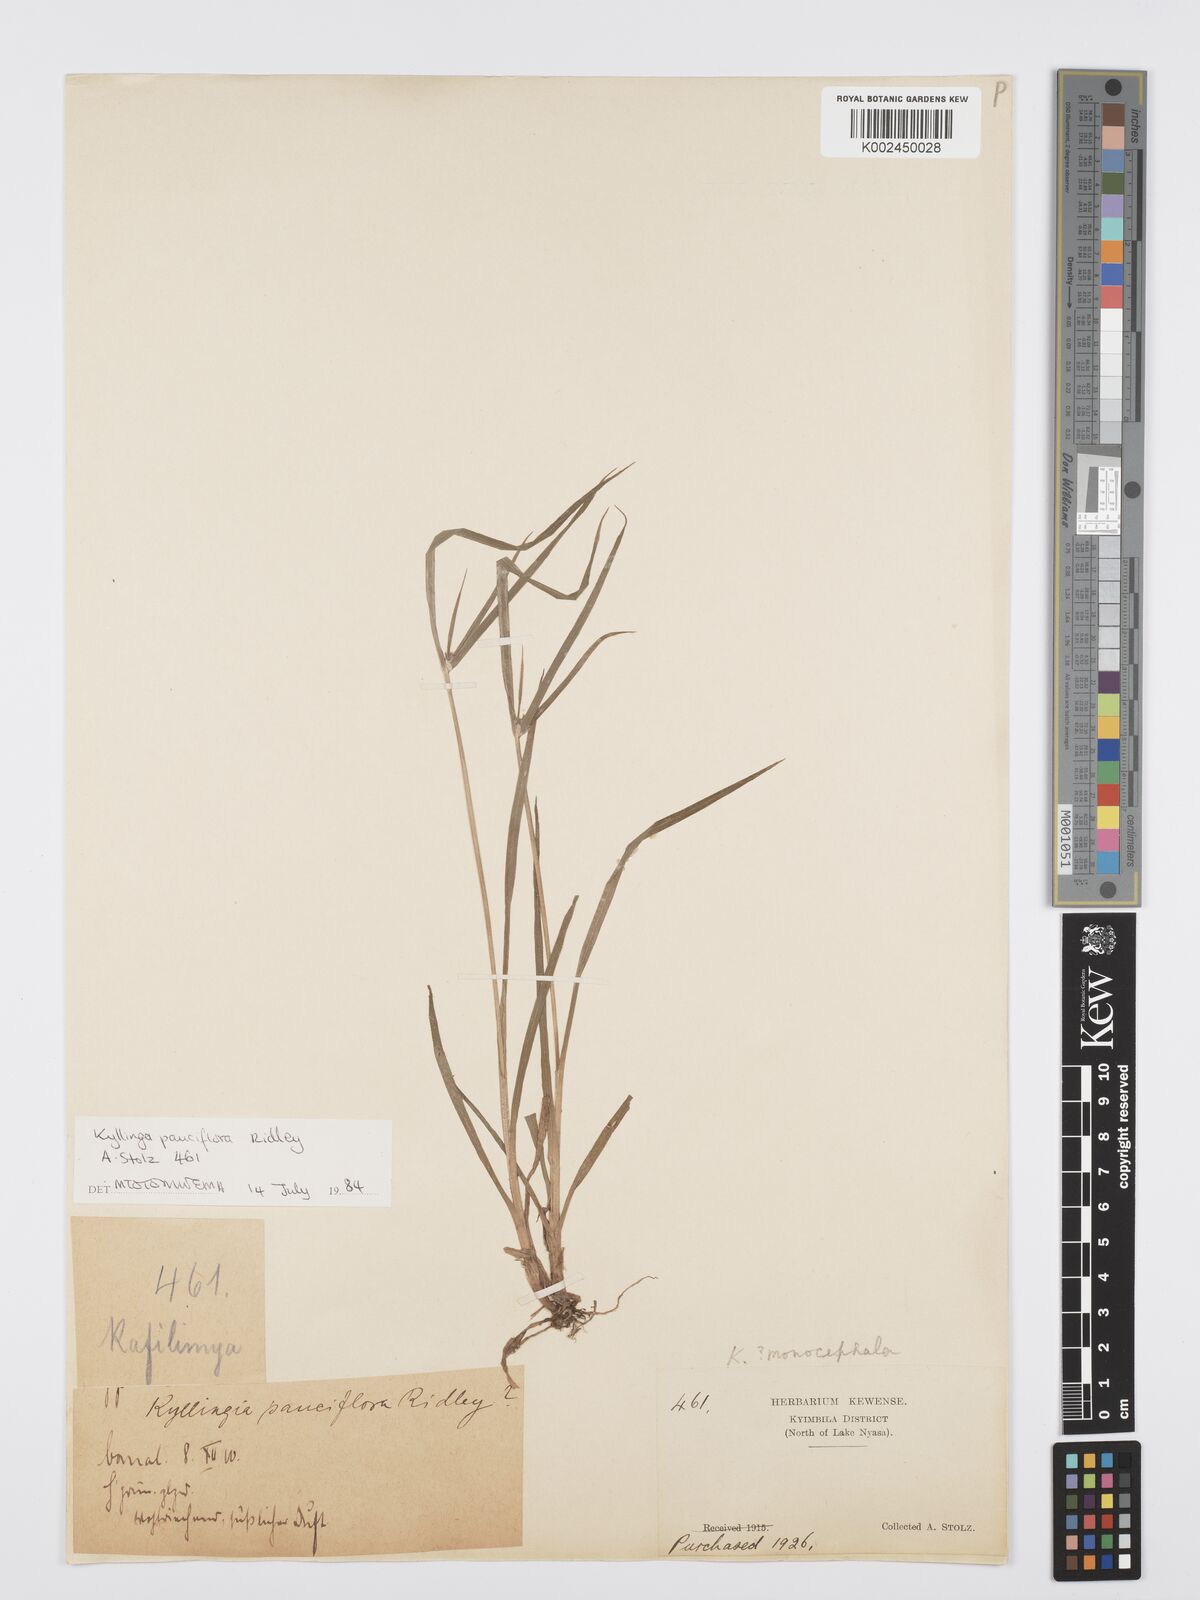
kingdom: Plantae
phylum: Tracheophyta
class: Liliopsida
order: Poales
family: Cyperaceae
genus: Cyperus
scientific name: Cyperus
